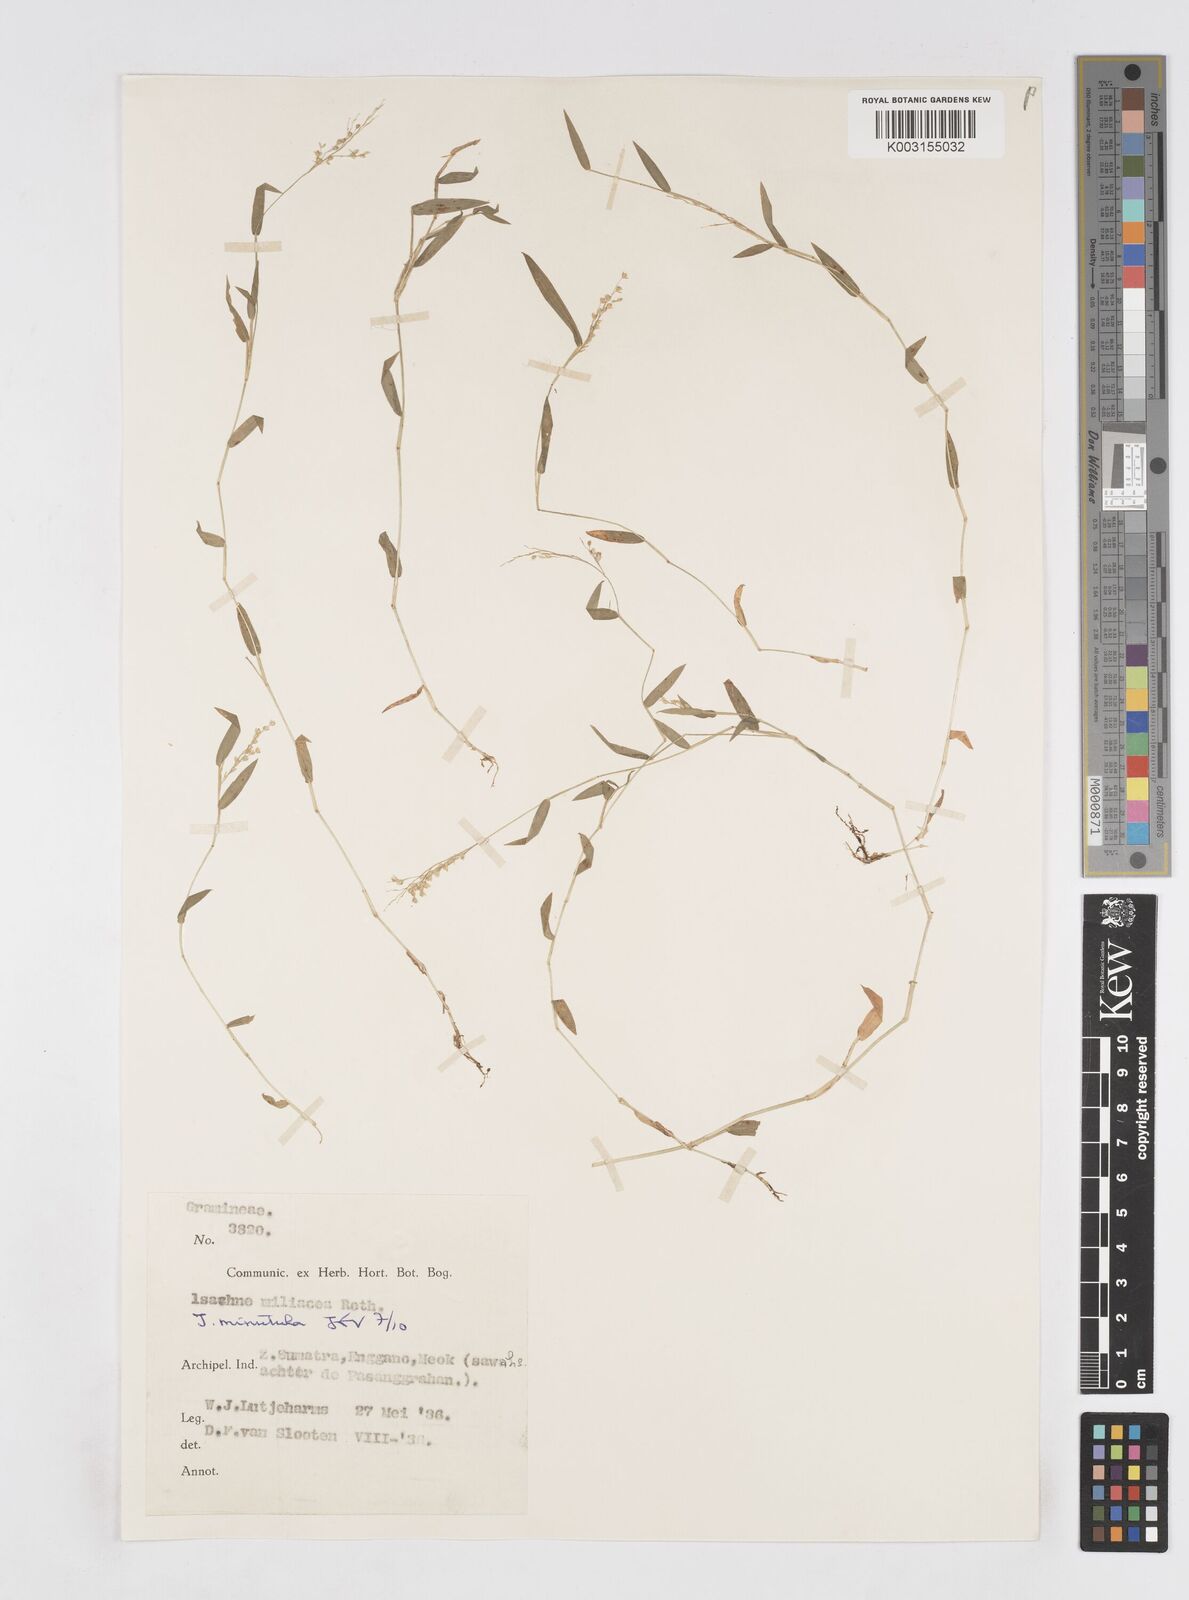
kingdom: Plantae
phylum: Tracheophyta
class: Liliopsida
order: Poales
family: Poaceae
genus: Isachne
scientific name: Isachne globosa
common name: Swamp millet
